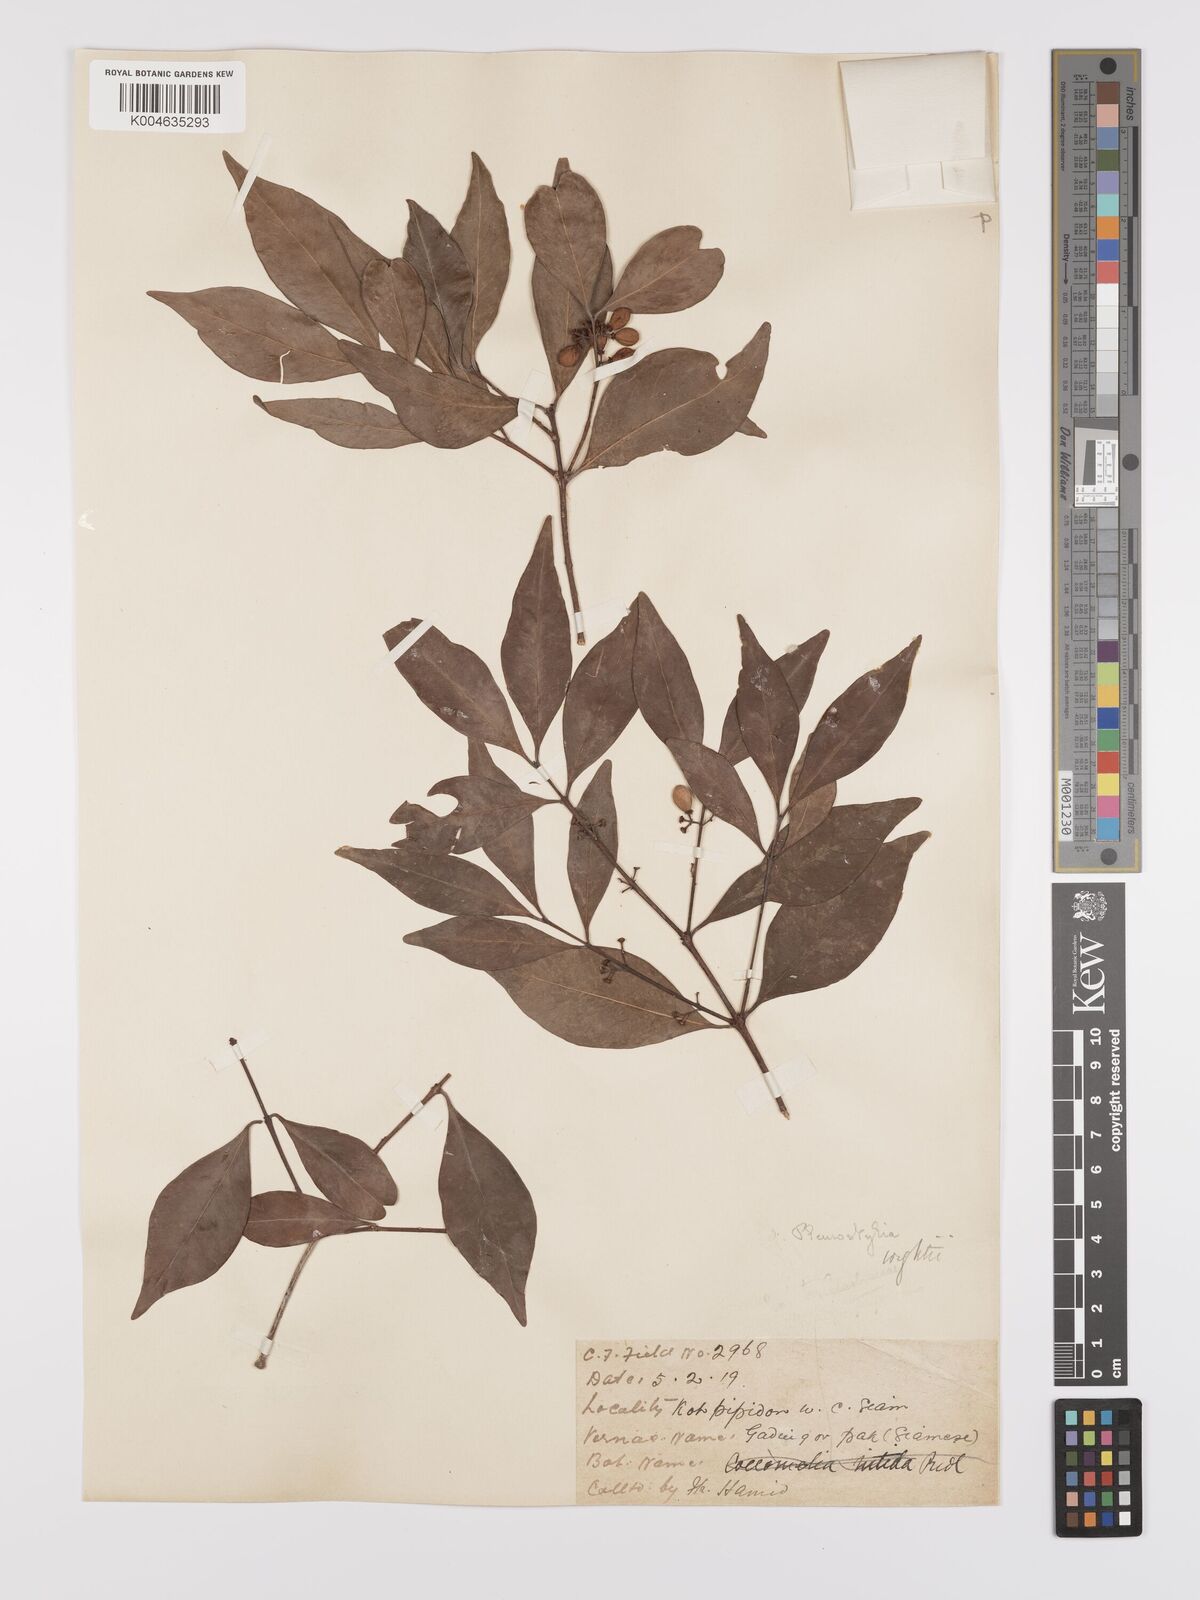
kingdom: Plantae
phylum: Tracheophyta
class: Magnoliopsida
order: Celastrales
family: Celastraceae
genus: Pleurostylia
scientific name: Pleurostylia opposita
